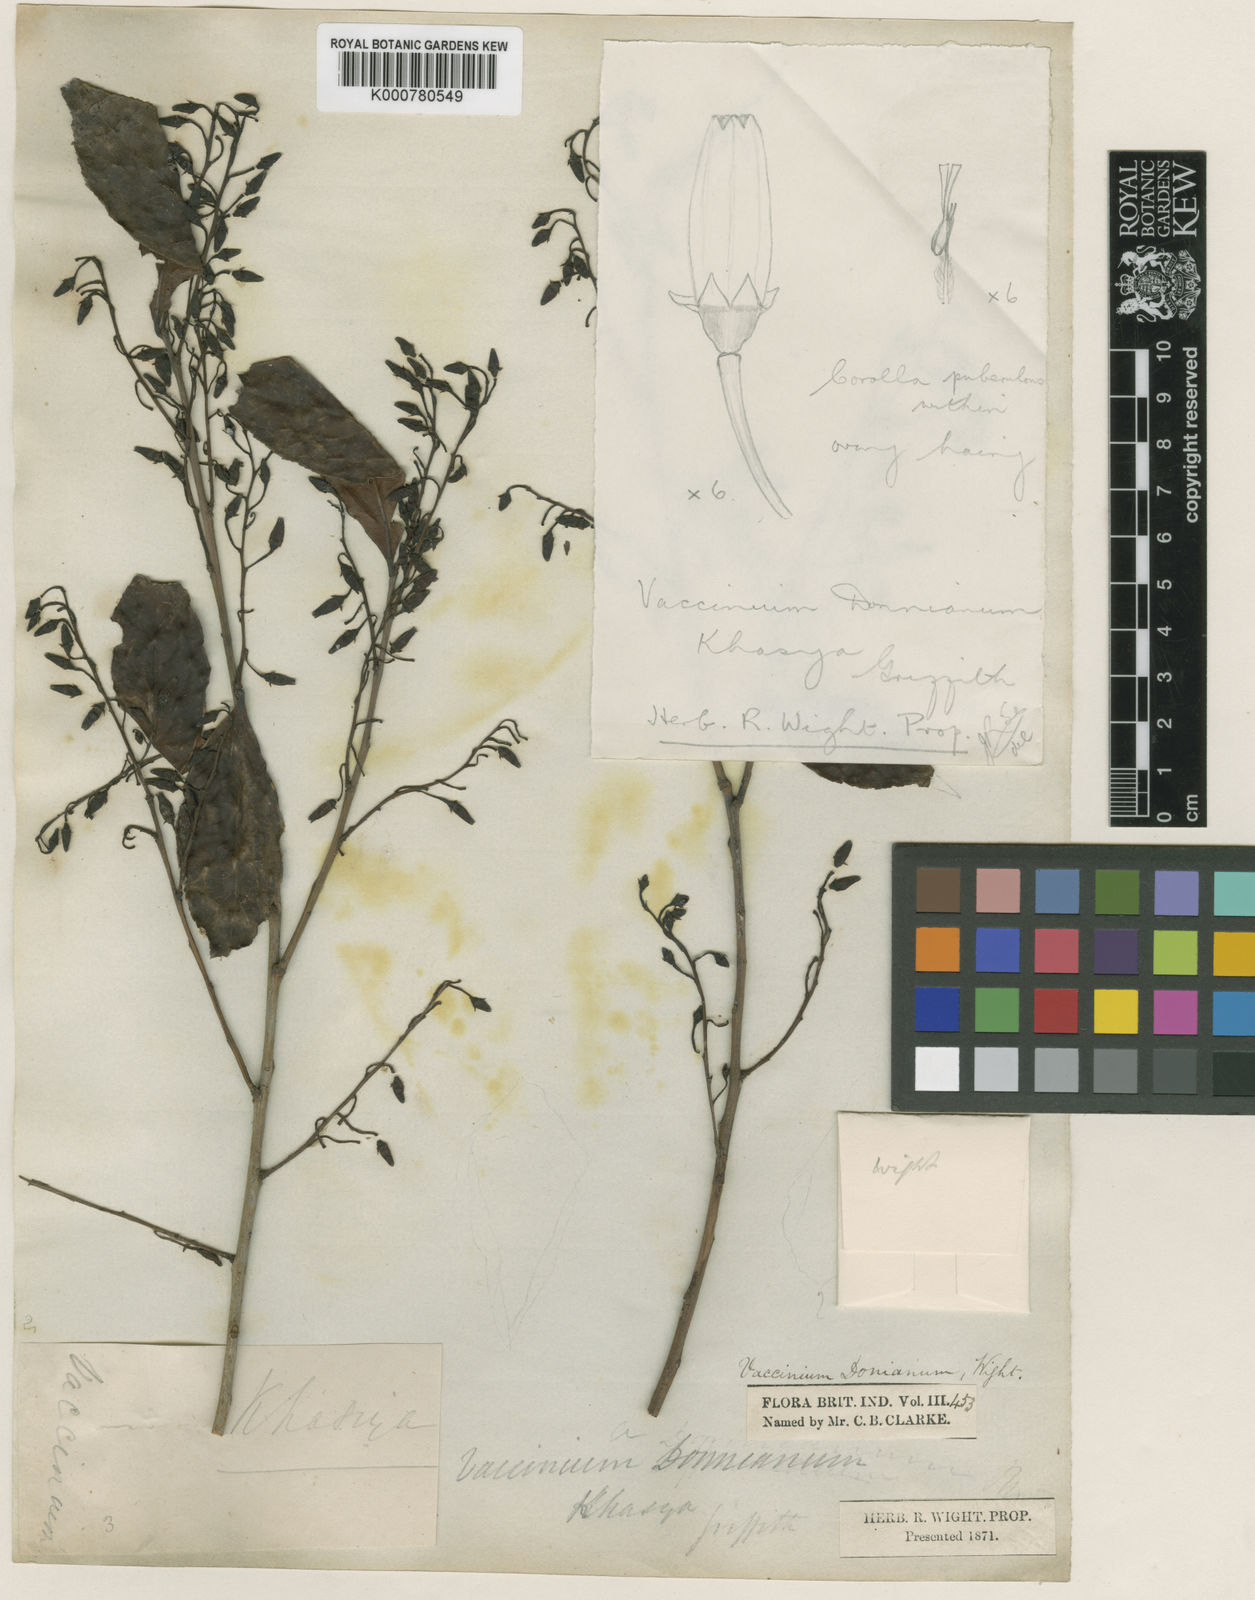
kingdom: Plantae
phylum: Tracheophyta
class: Magnoliopsida
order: Ericales
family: Ericaceae
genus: Vaccinium
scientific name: Vaccinium
